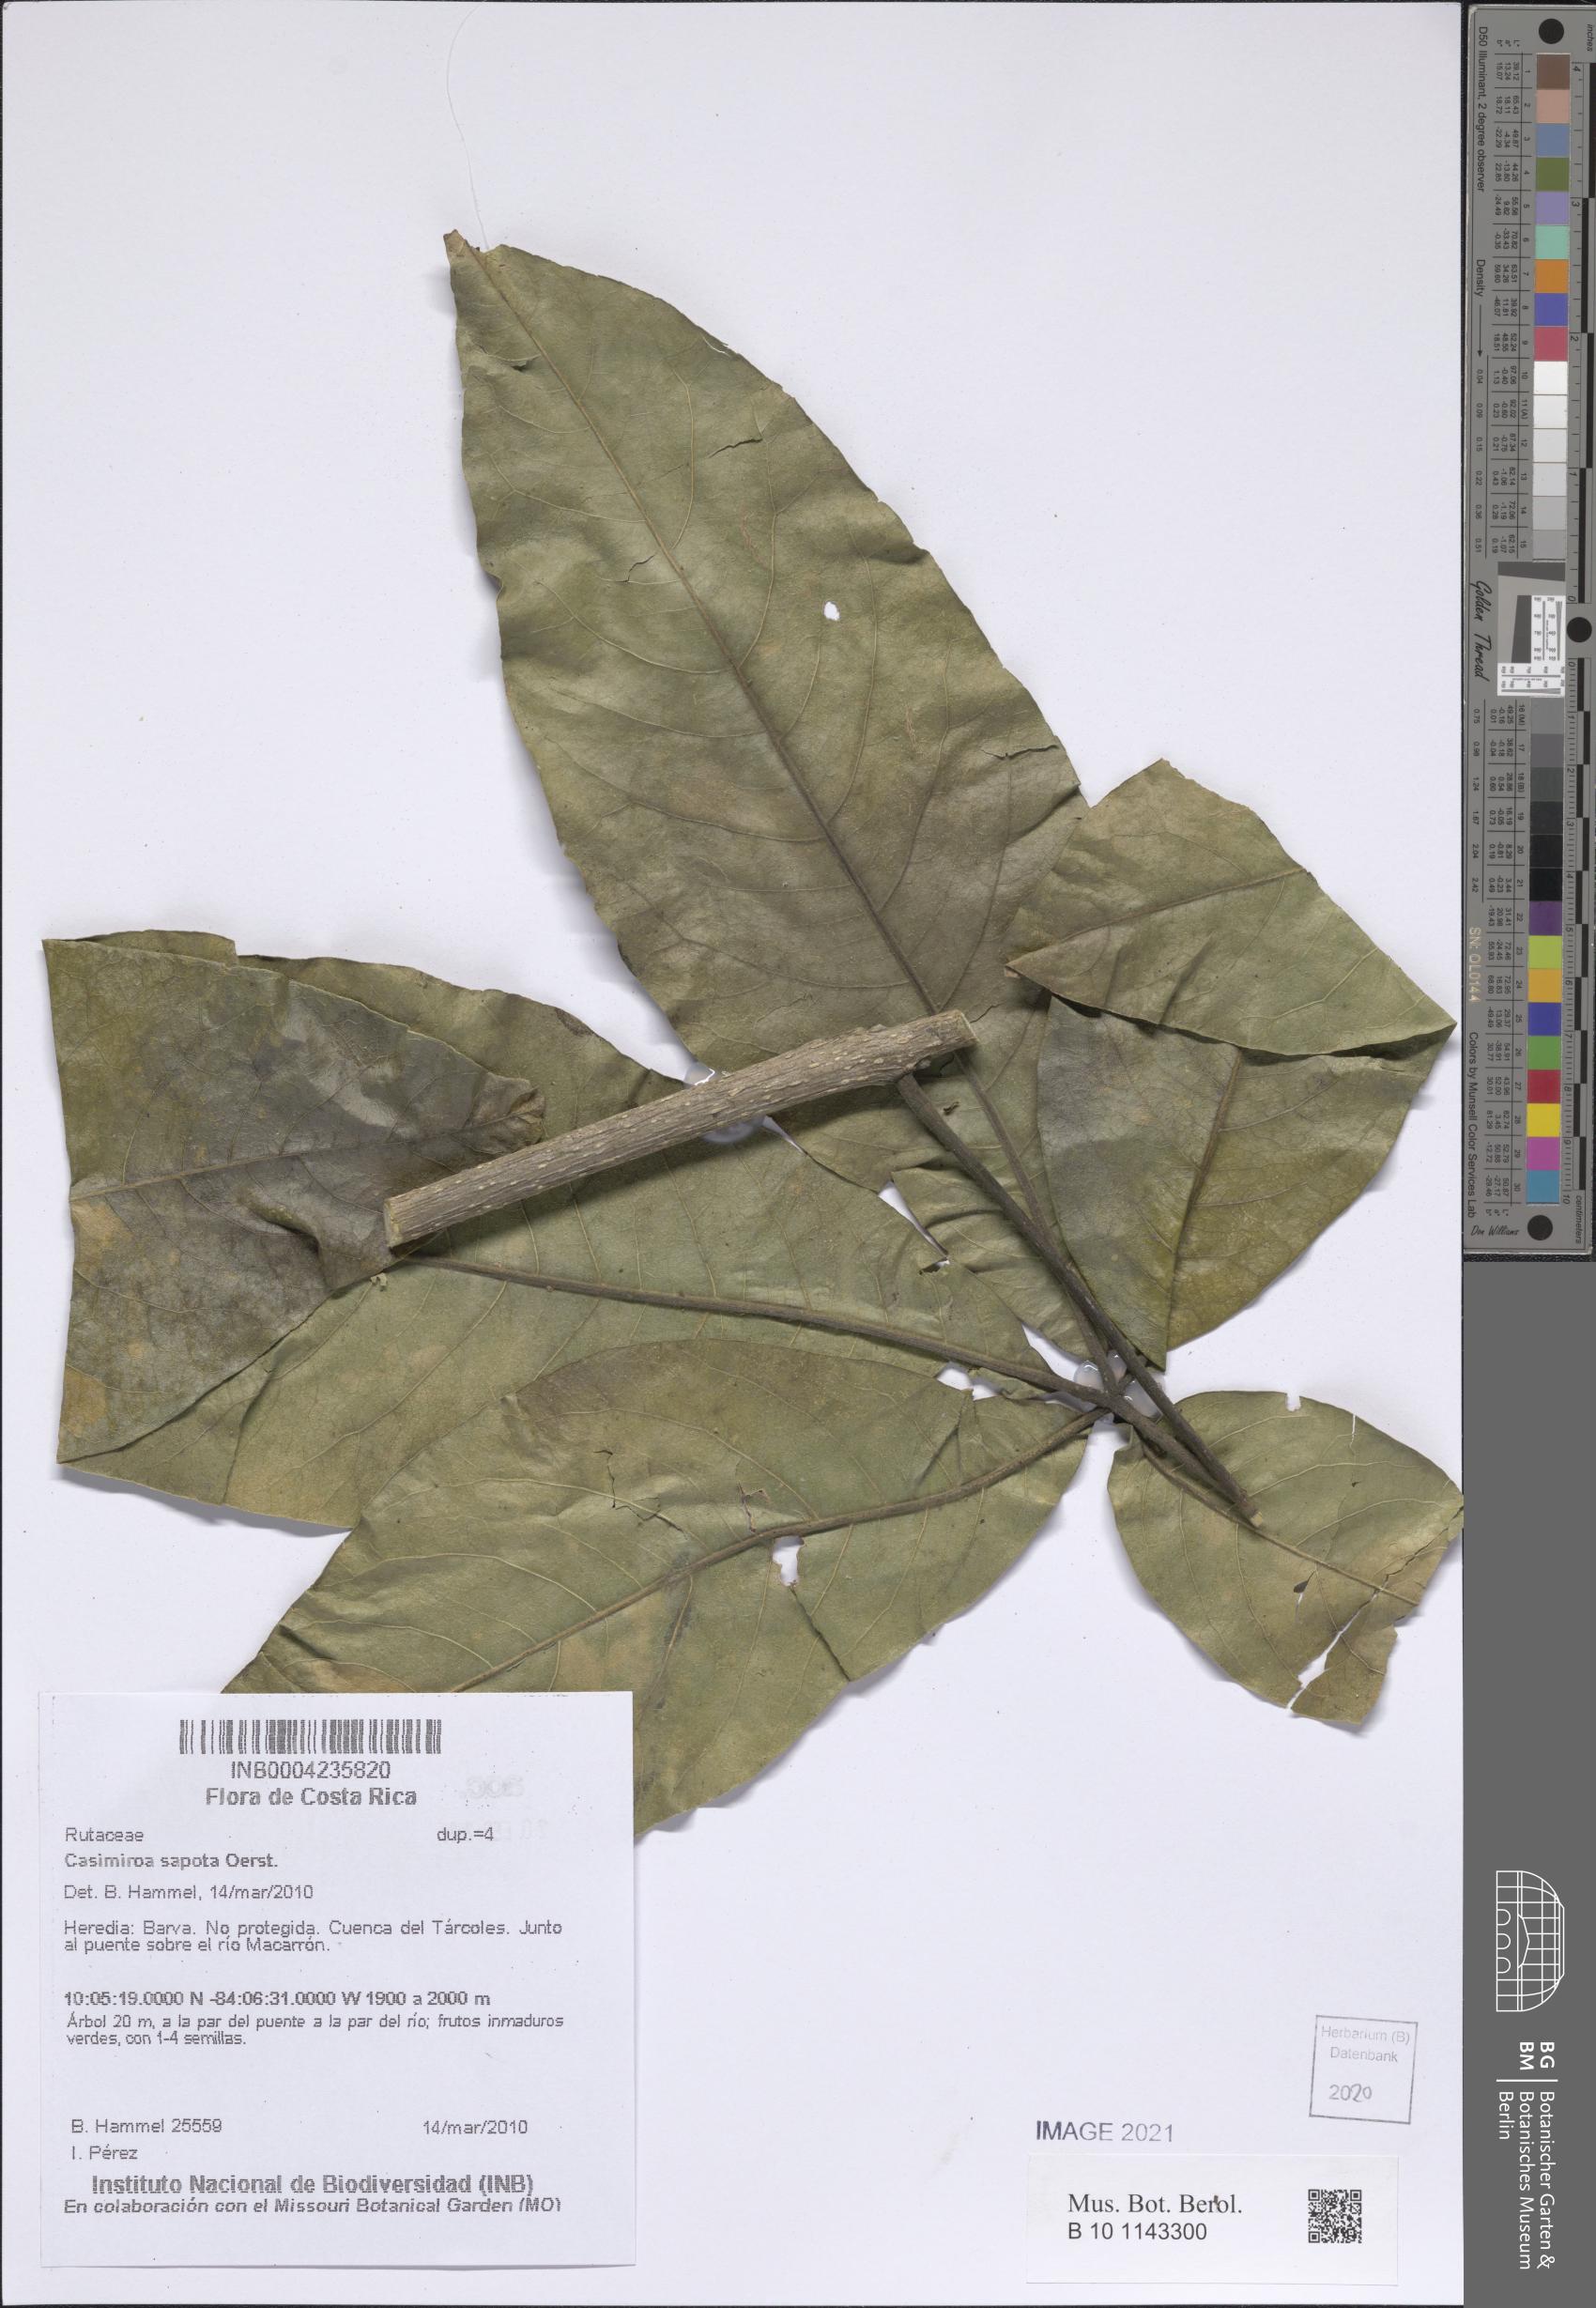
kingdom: Plantae
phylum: Tracheophyta
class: Magnoliopsida
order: Sapindales
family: Rutaceae
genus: Casimiroa
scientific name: Casimiroa sapota
